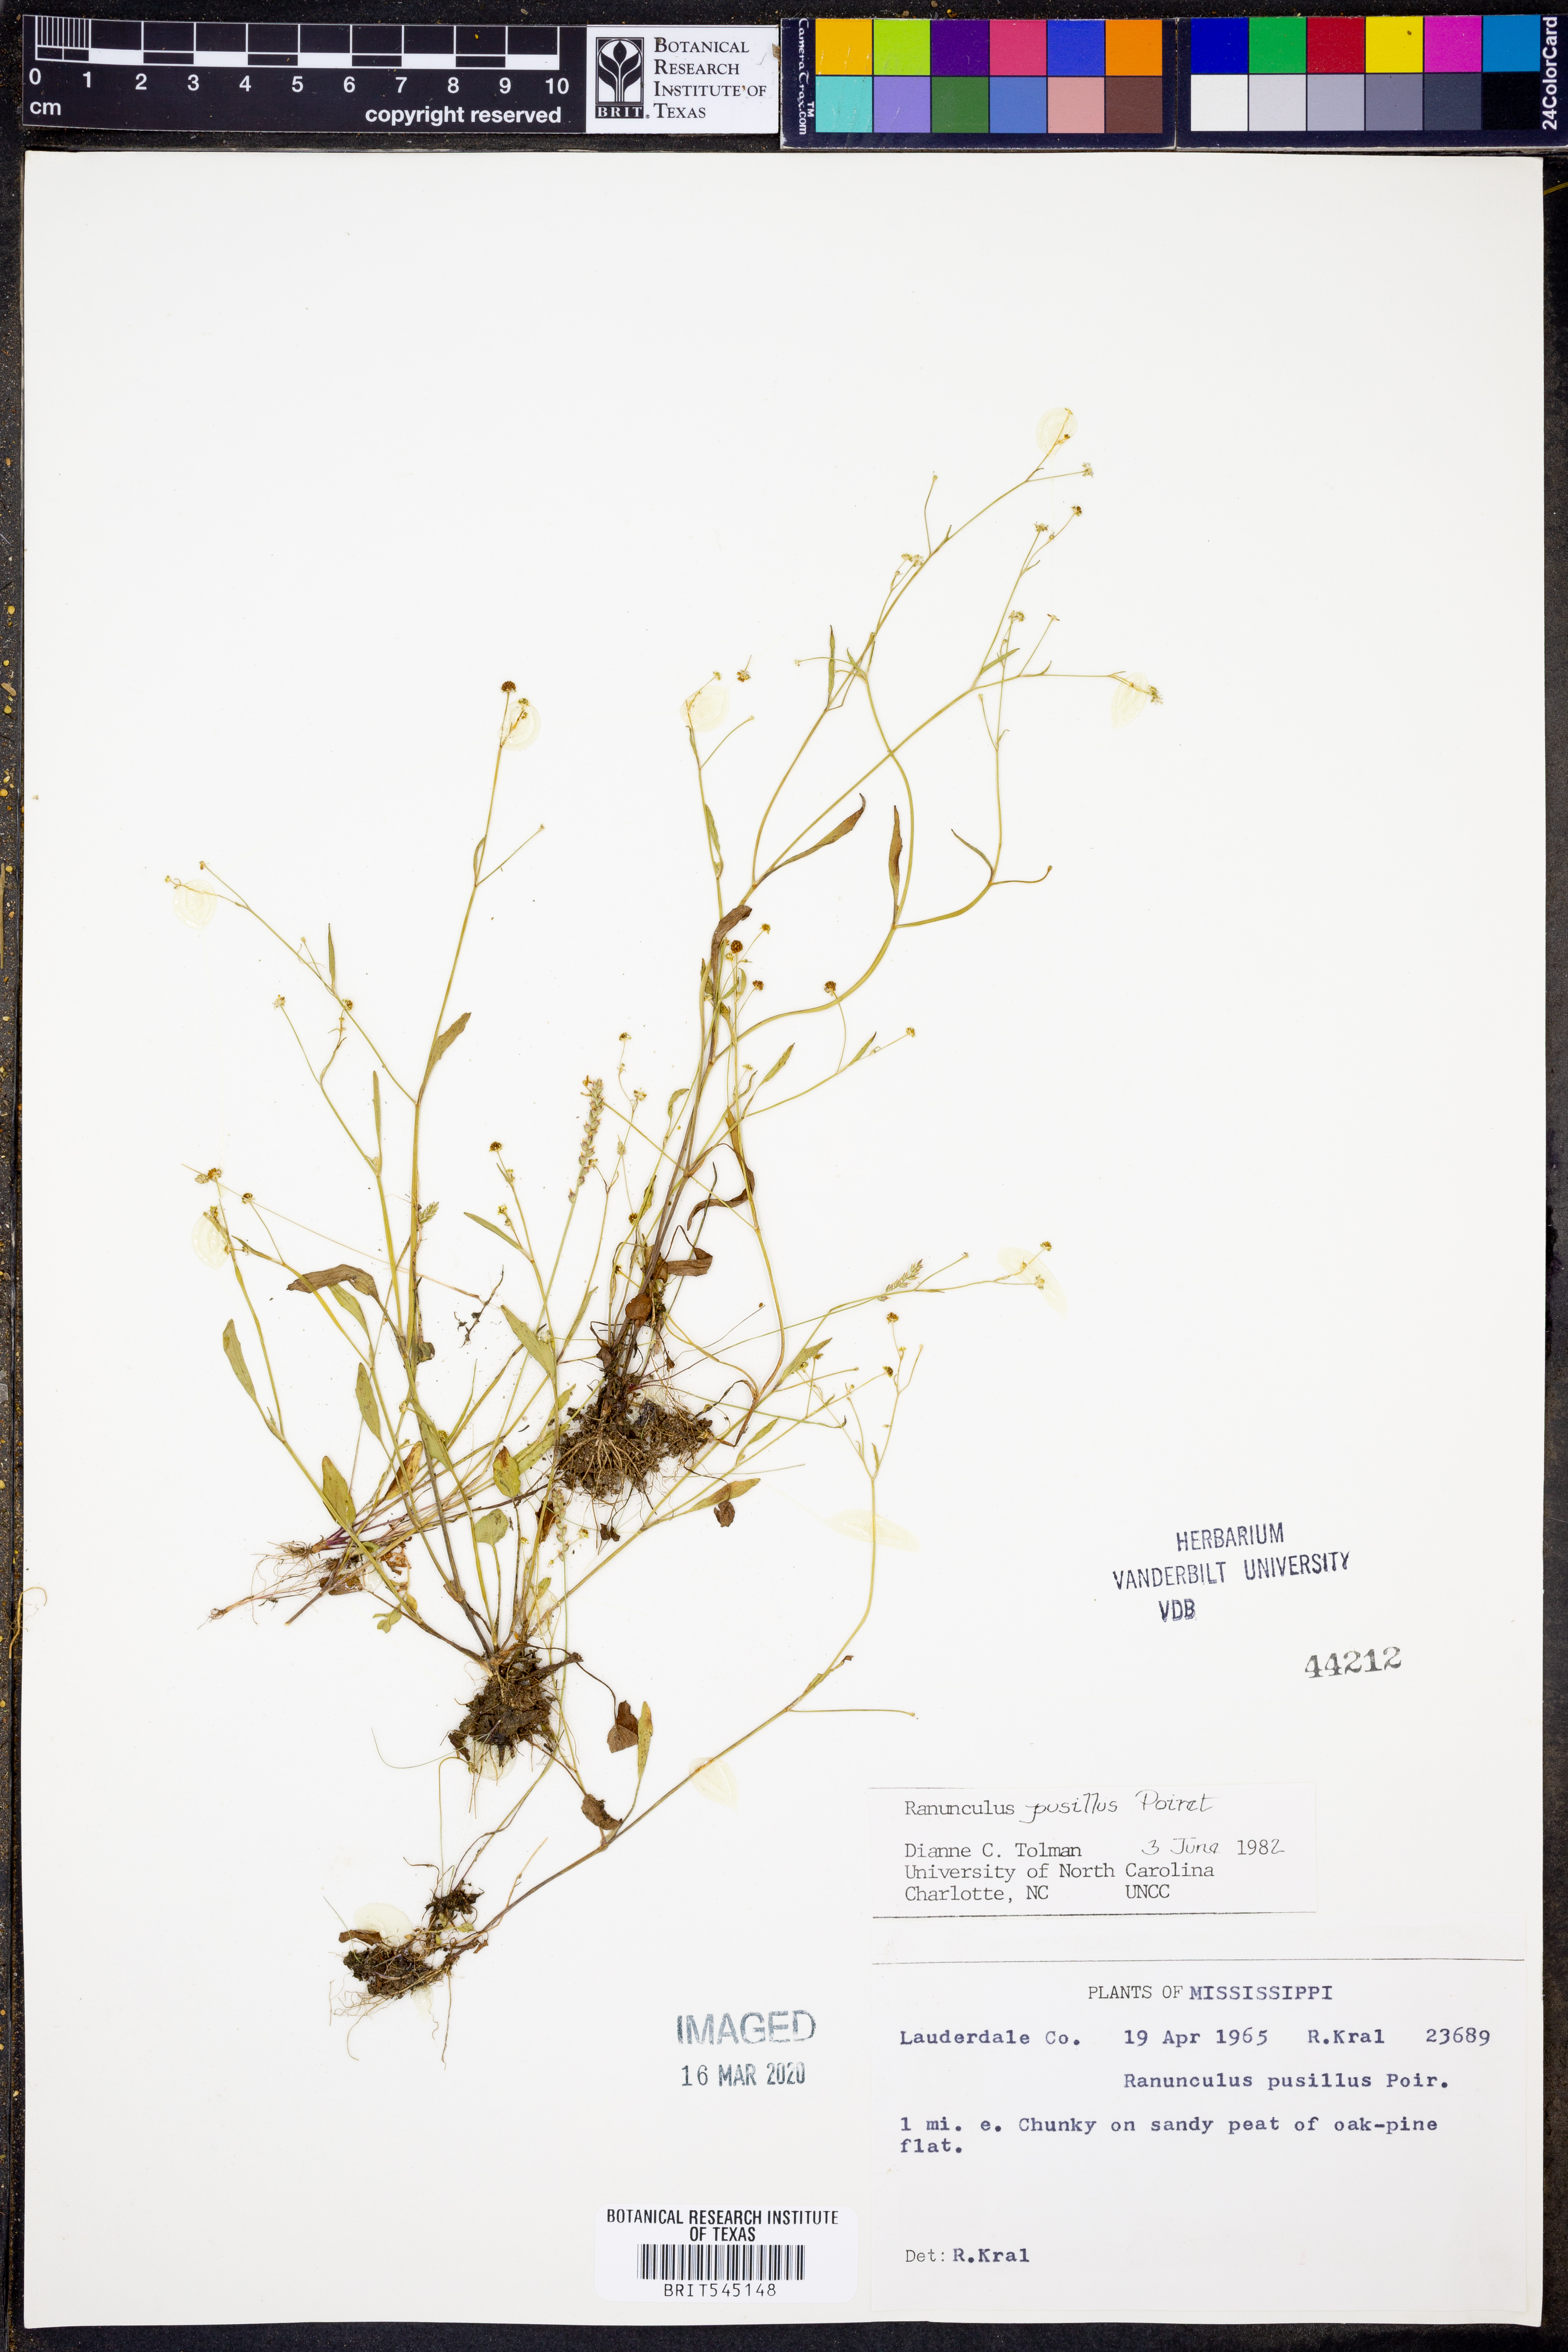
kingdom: Plantae
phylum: Tracheophyta
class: Magnoliopsida
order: Ranunculales
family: Ranunculaceae
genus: Ranunculus
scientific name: Ranunculus pusillus
